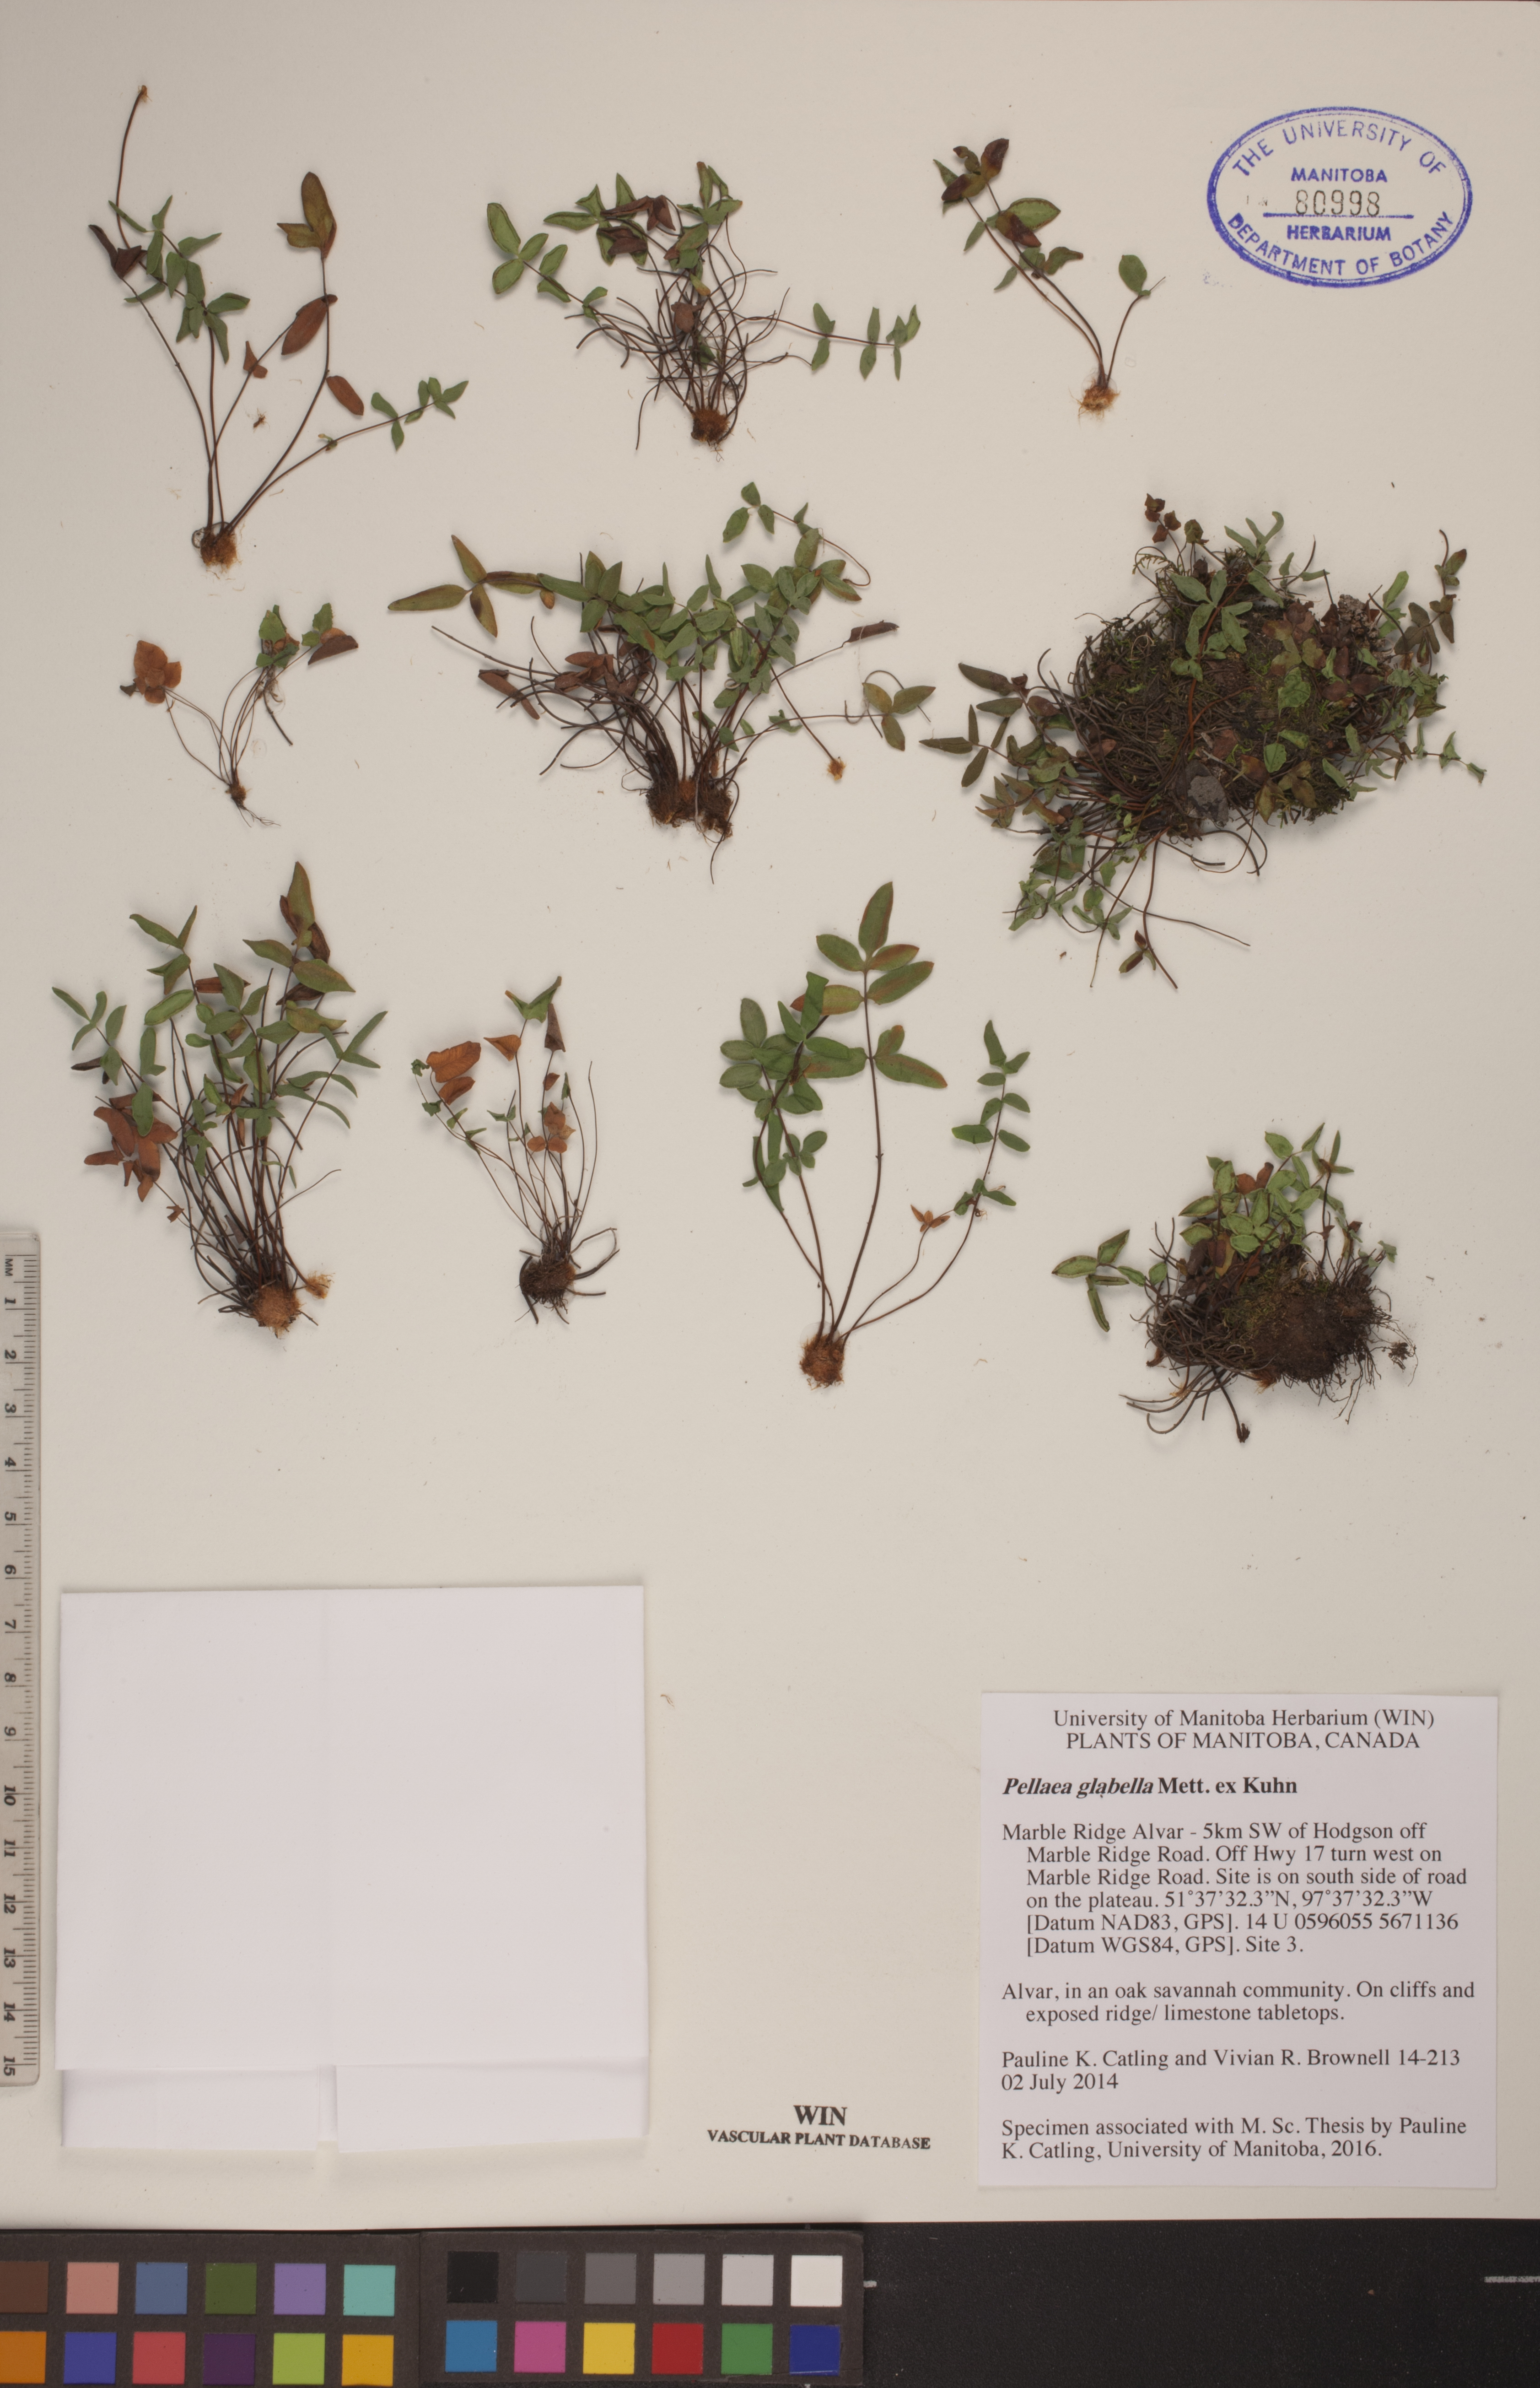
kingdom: Plantae
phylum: Tracheophyta
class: Polypodiopsida
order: Polypodiales
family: Pteridaceae
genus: Pellaea
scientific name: Pellaea glabella
